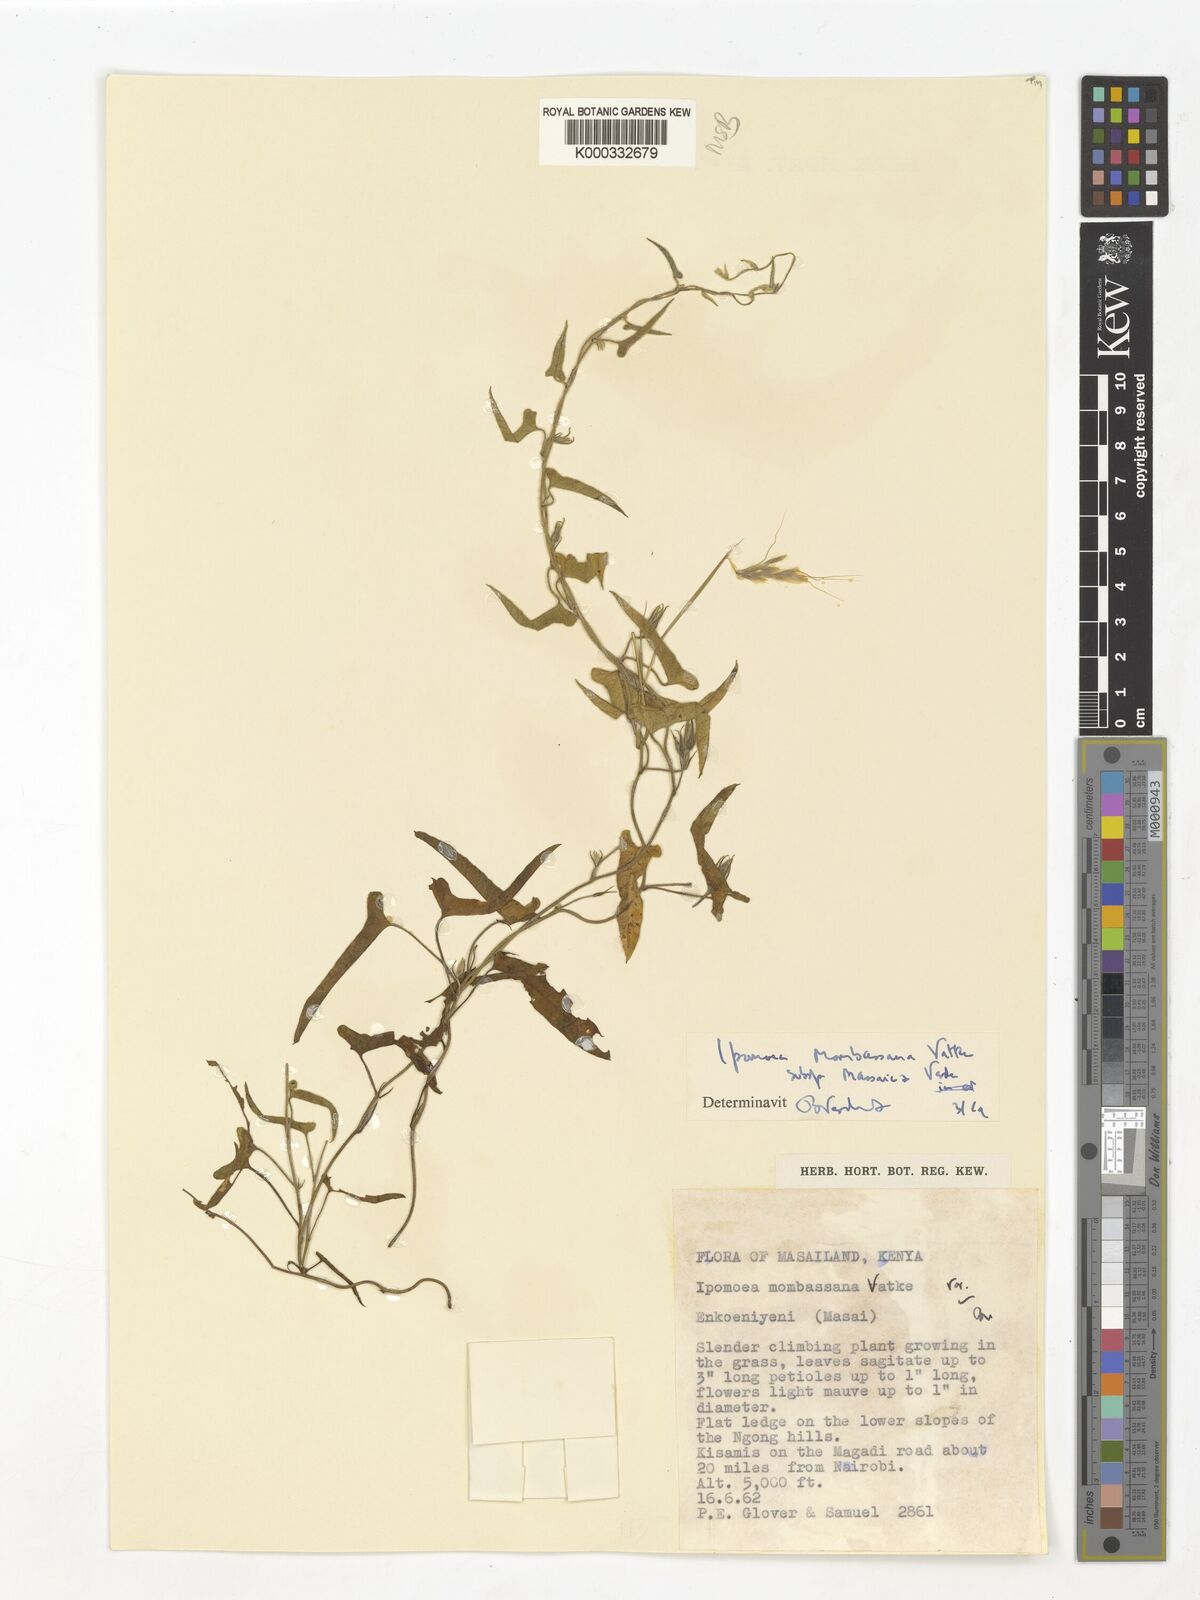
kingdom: Plantae
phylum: Tracheophyta
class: Magnoliopsida
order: Solanales
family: Convolvulaceae
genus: Ipomoea
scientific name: Ipomoea mombassana
